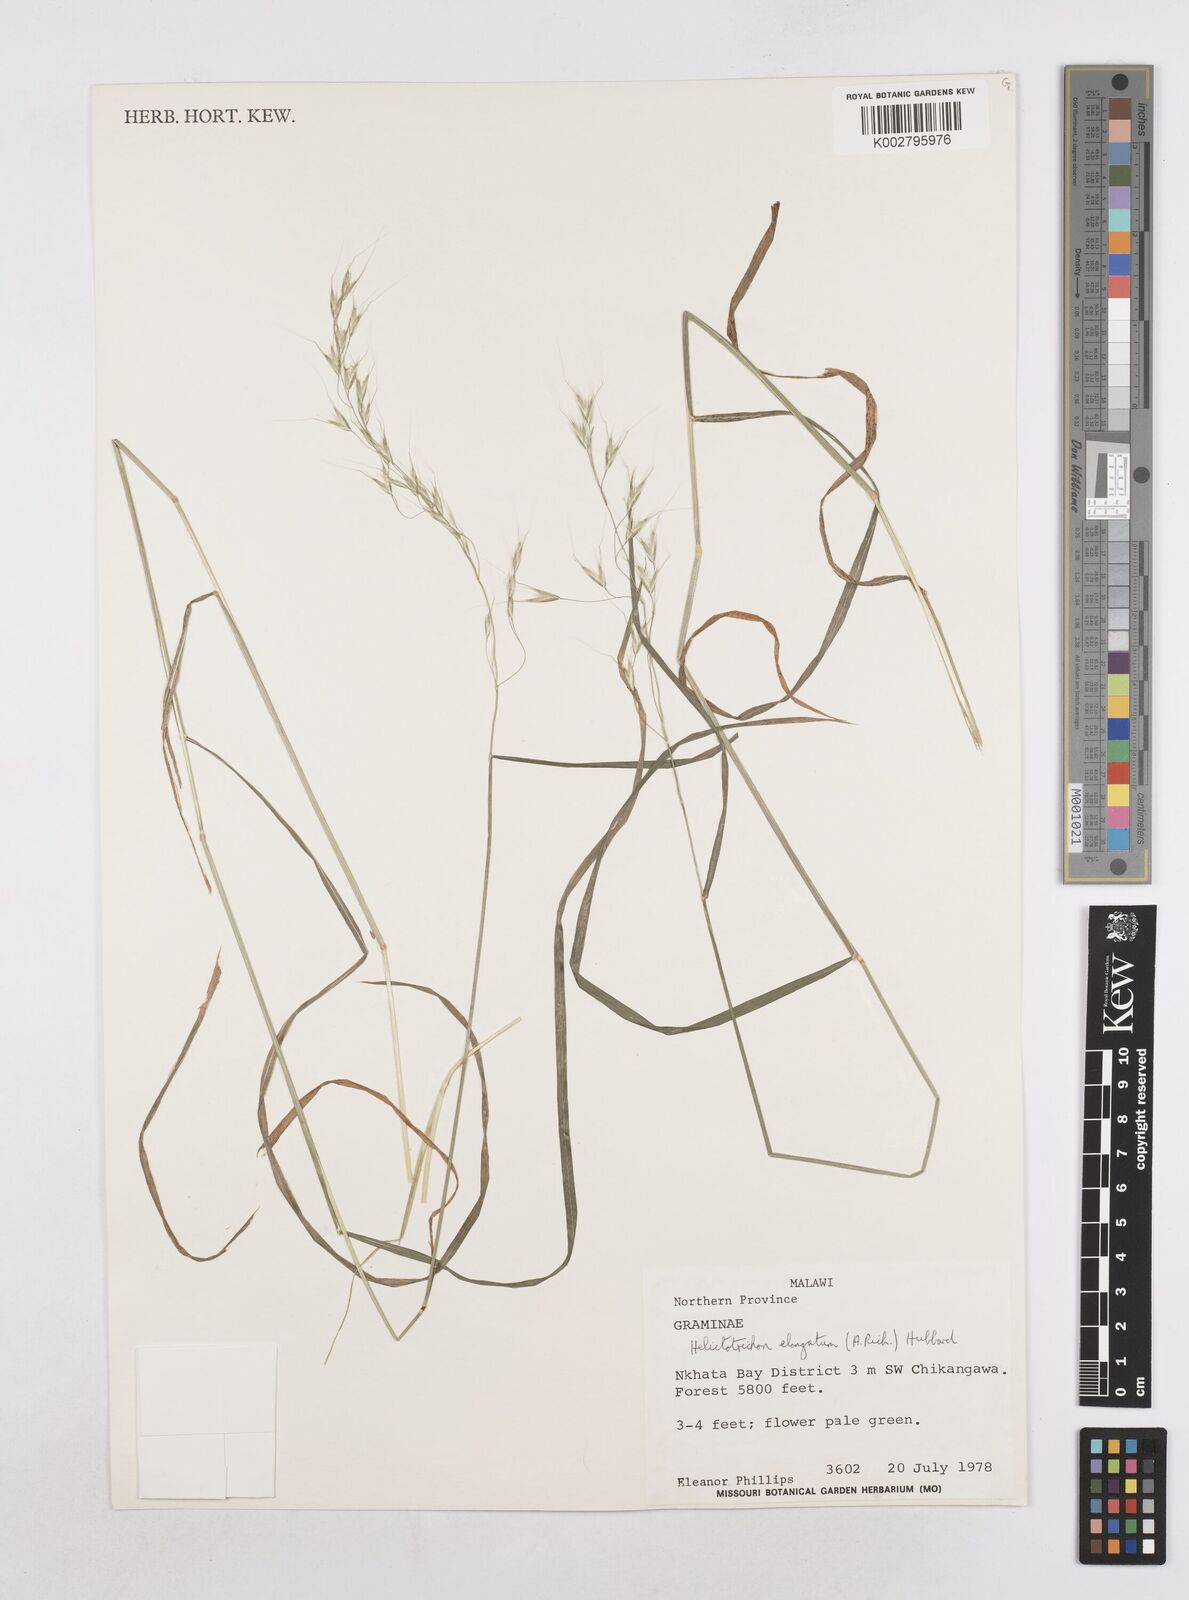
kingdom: Plantae
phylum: Tracheophyta
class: Liliopsida
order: Poales
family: Poaceae
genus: Trisetopsis
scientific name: Trisetopsis elongata
